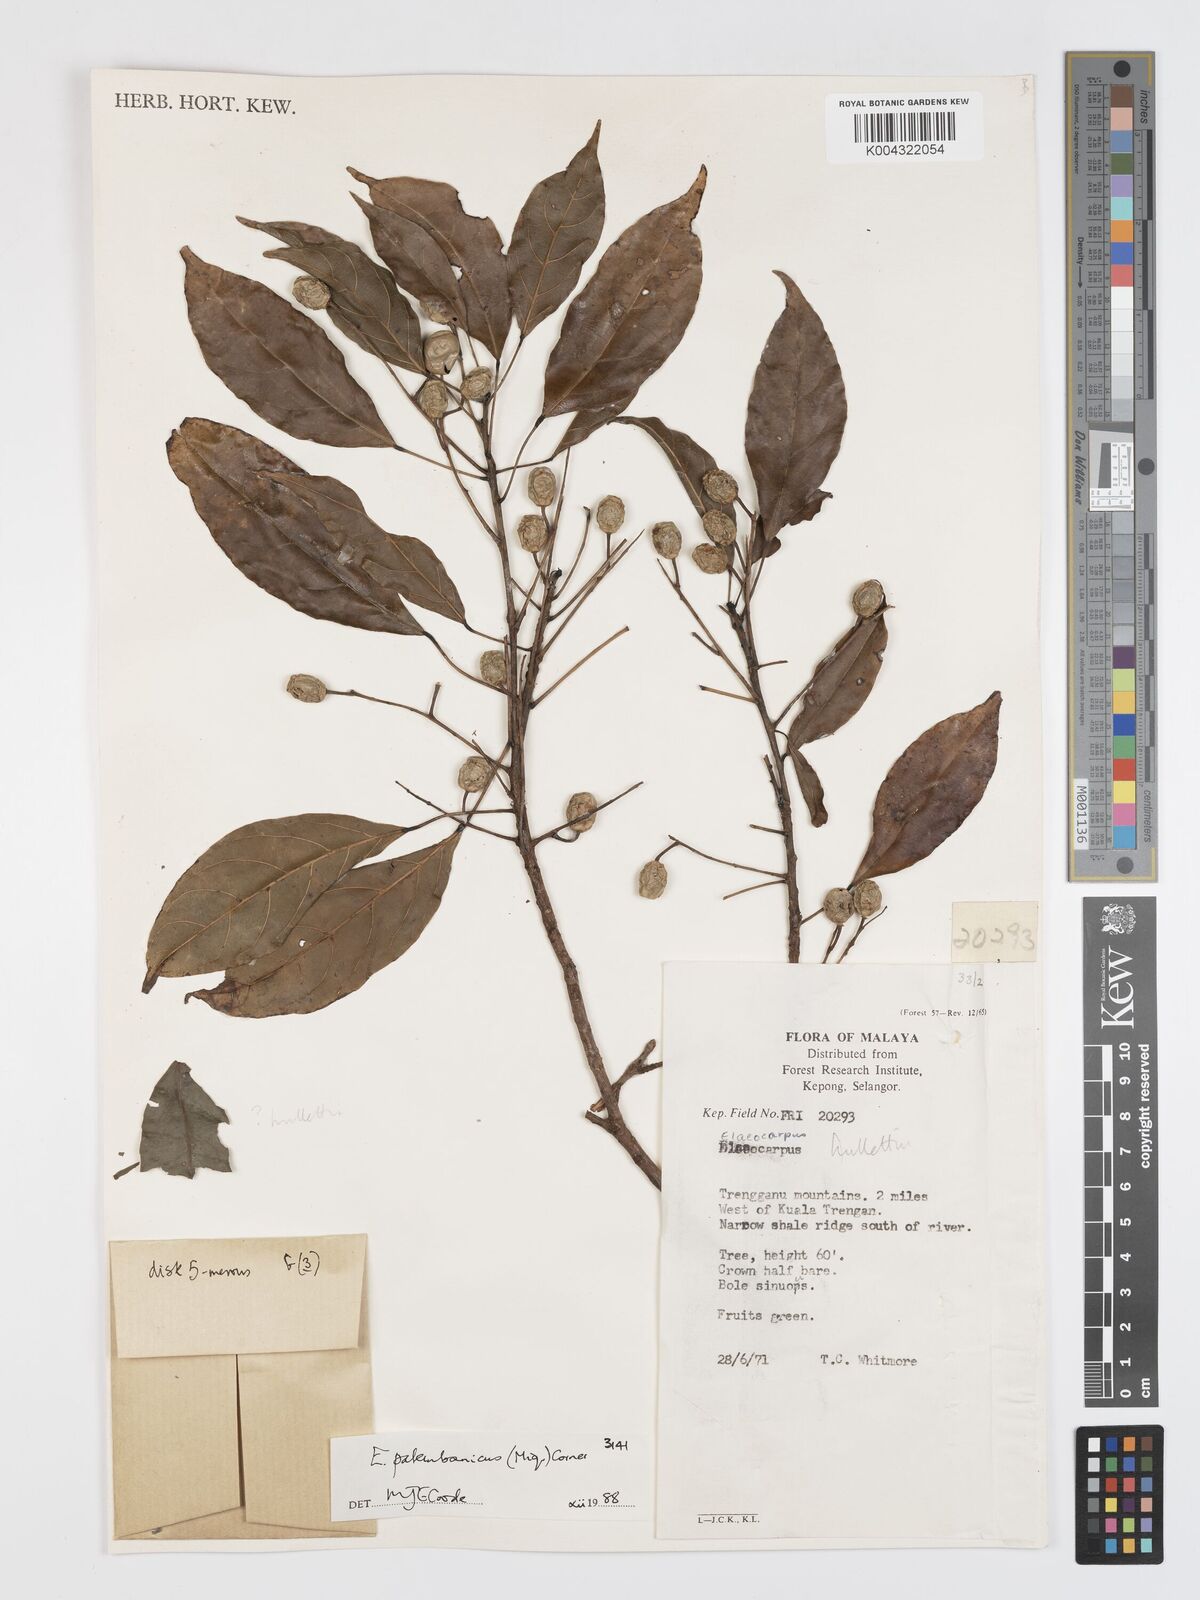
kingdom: Plantae
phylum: Tracheophyta
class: Magnoliopsida
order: Oxalidales
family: Elaeocarpaceae
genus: Elaeocarpus
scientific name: Elaeocarpus palembanicus
